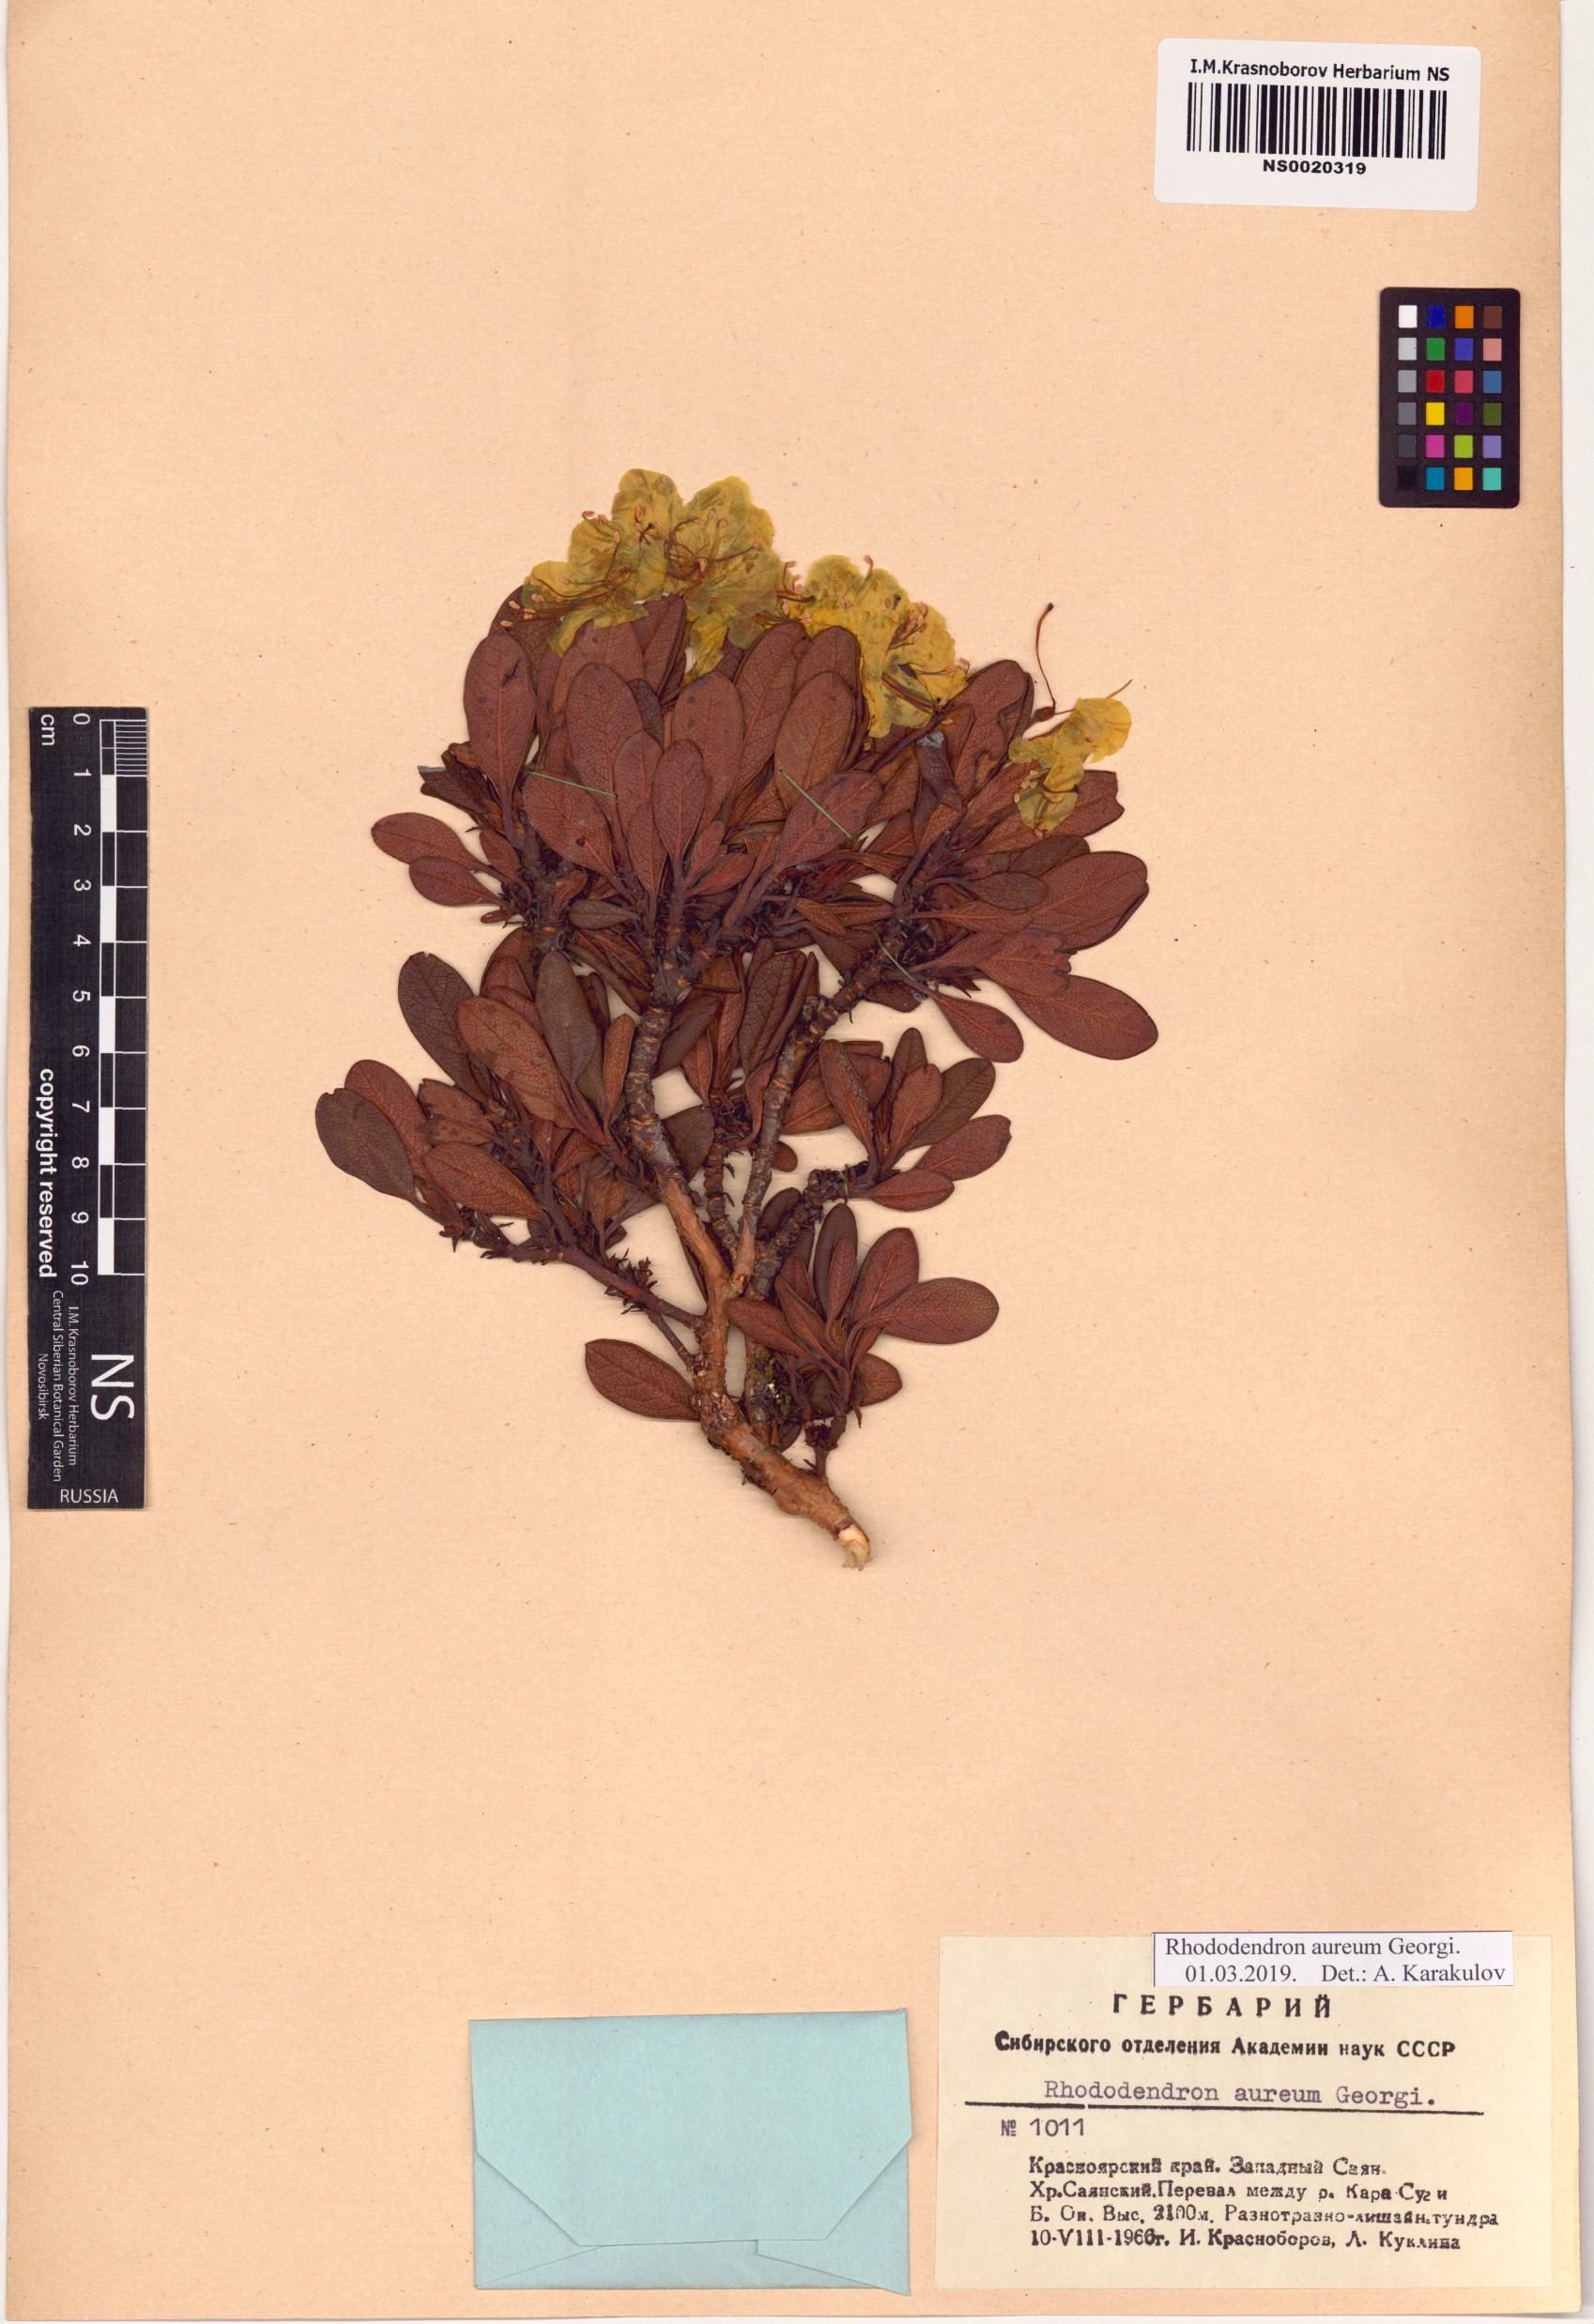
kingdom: Plantae
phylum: Tracheophyta
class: Magnoliopsida
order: Ericales
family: Ericaceae
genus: Rhododendron
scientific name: Rhododendron aureum
